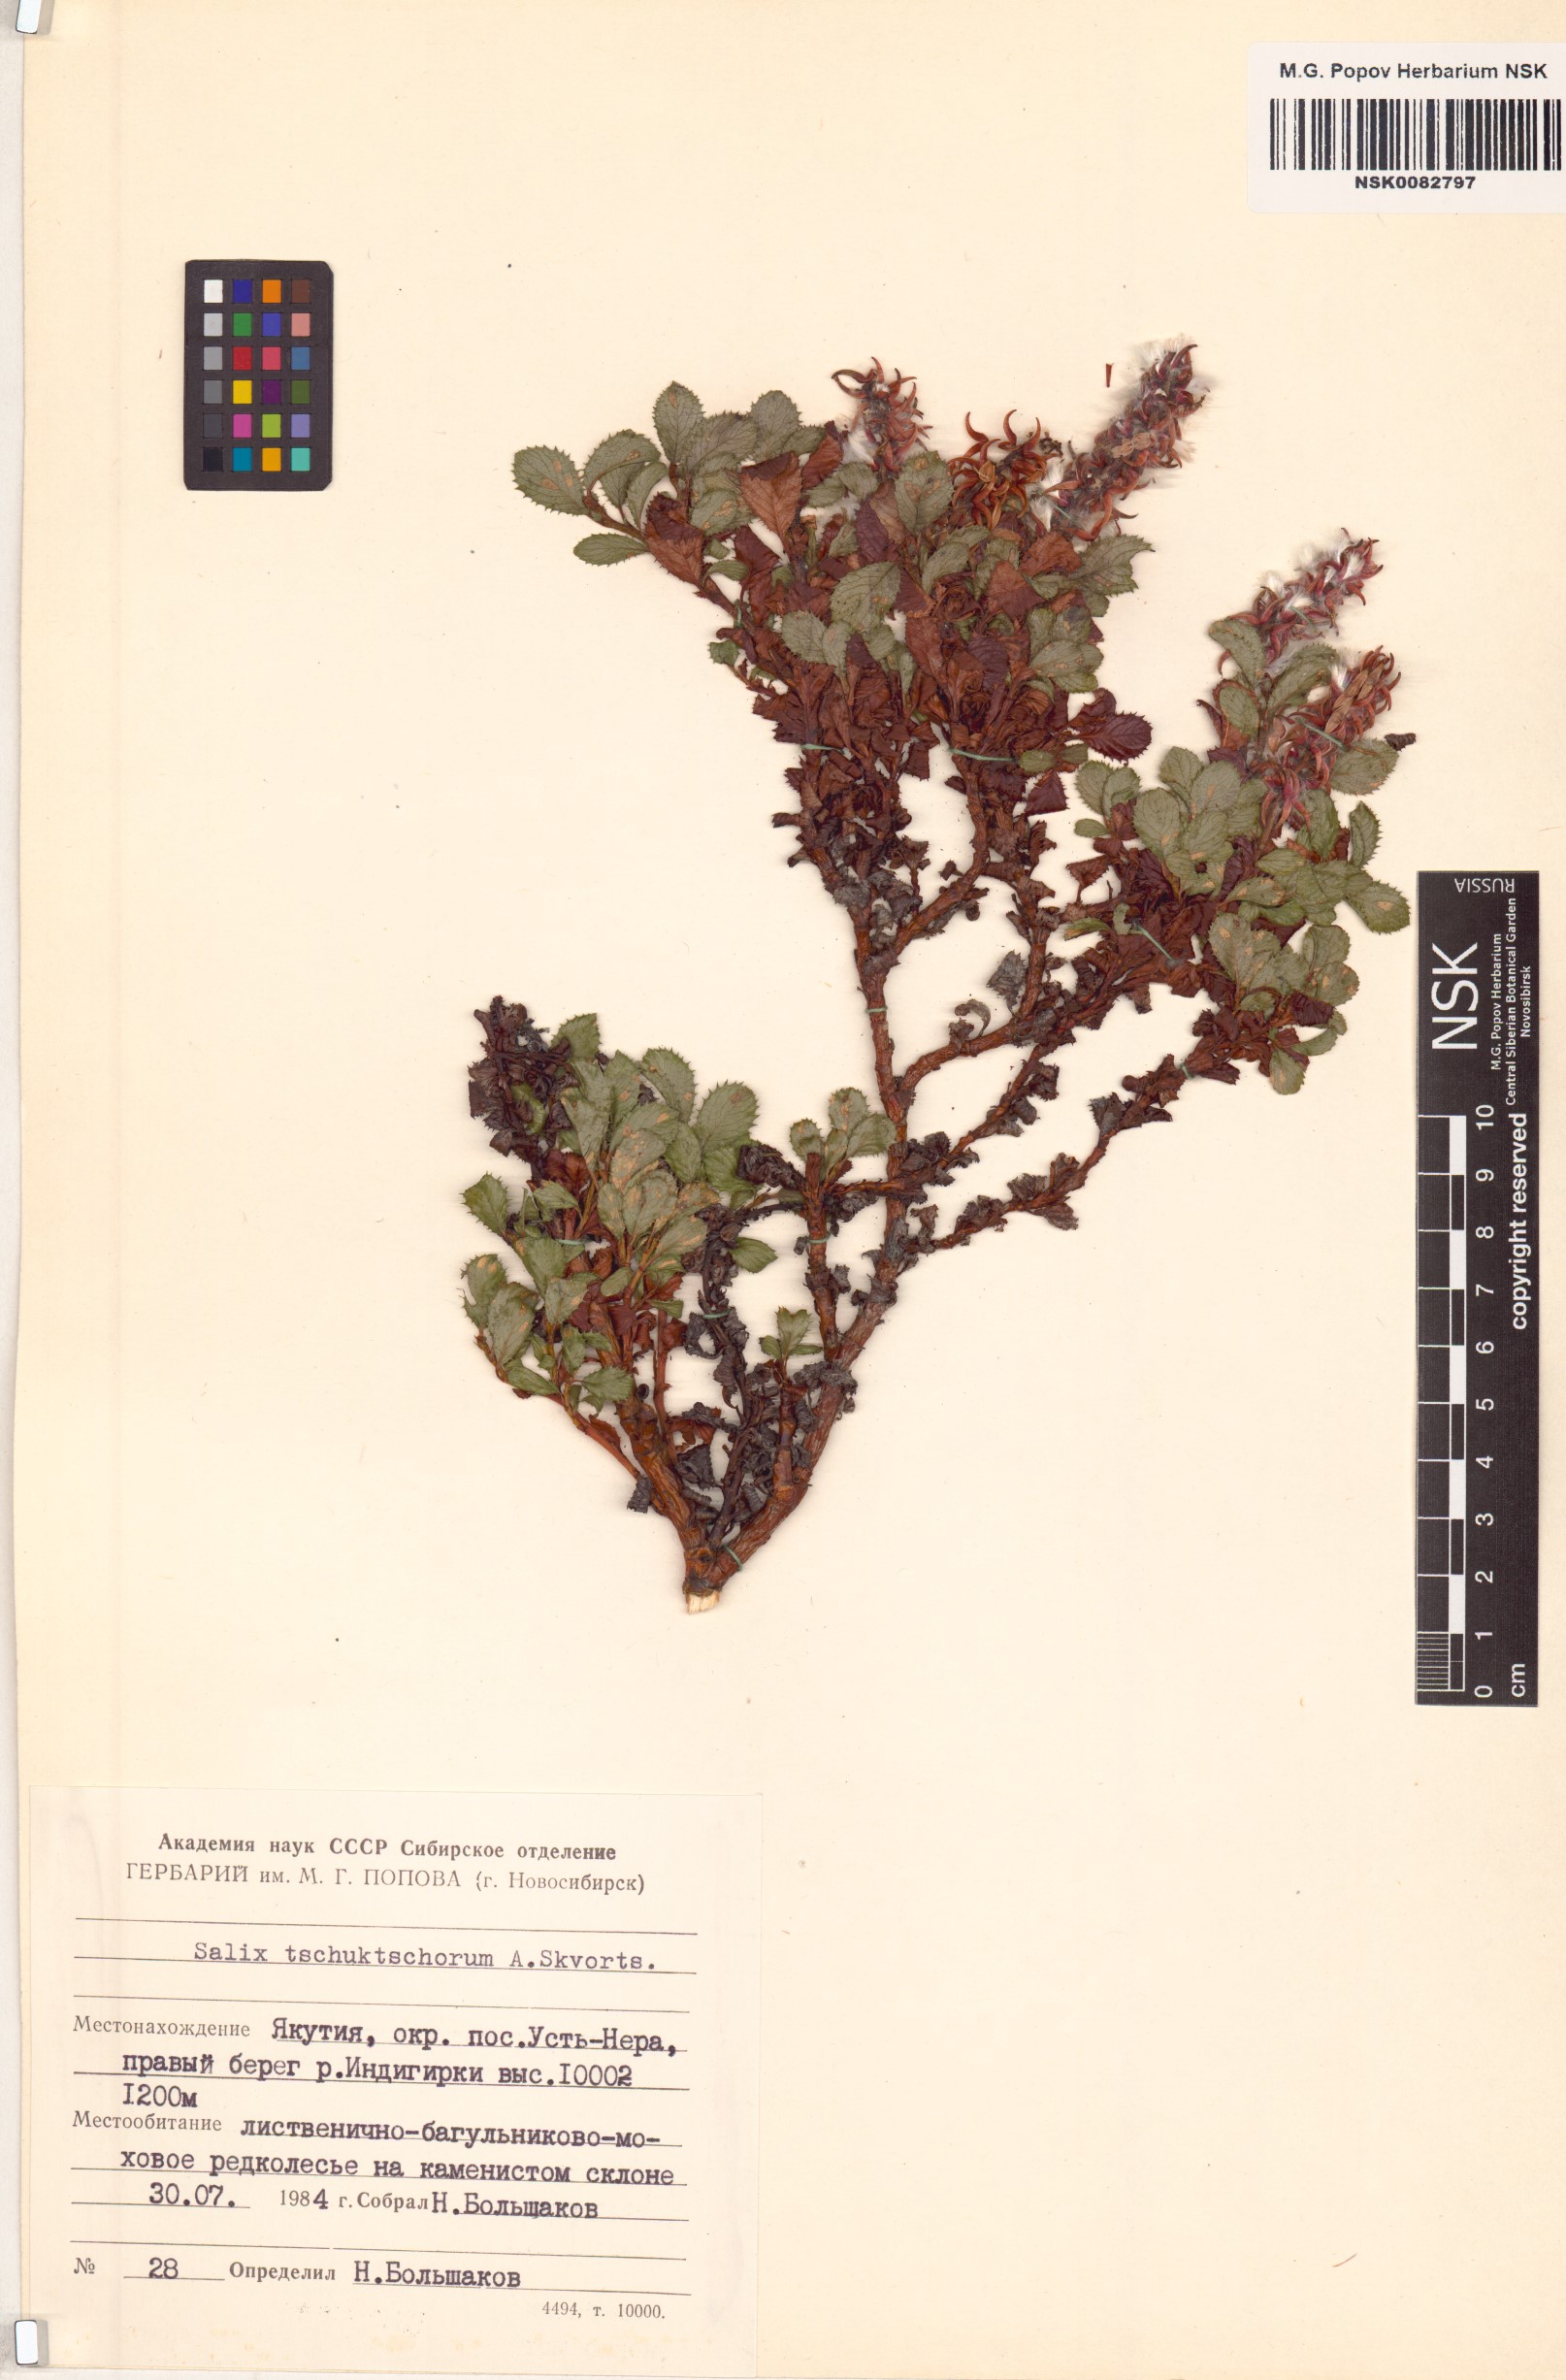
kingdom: Plantae
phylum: Tracheophyta
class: Magnoliopsida
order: Malpighiales
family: Salicaceae
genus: Salix
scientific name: Salix tschuktschorum
